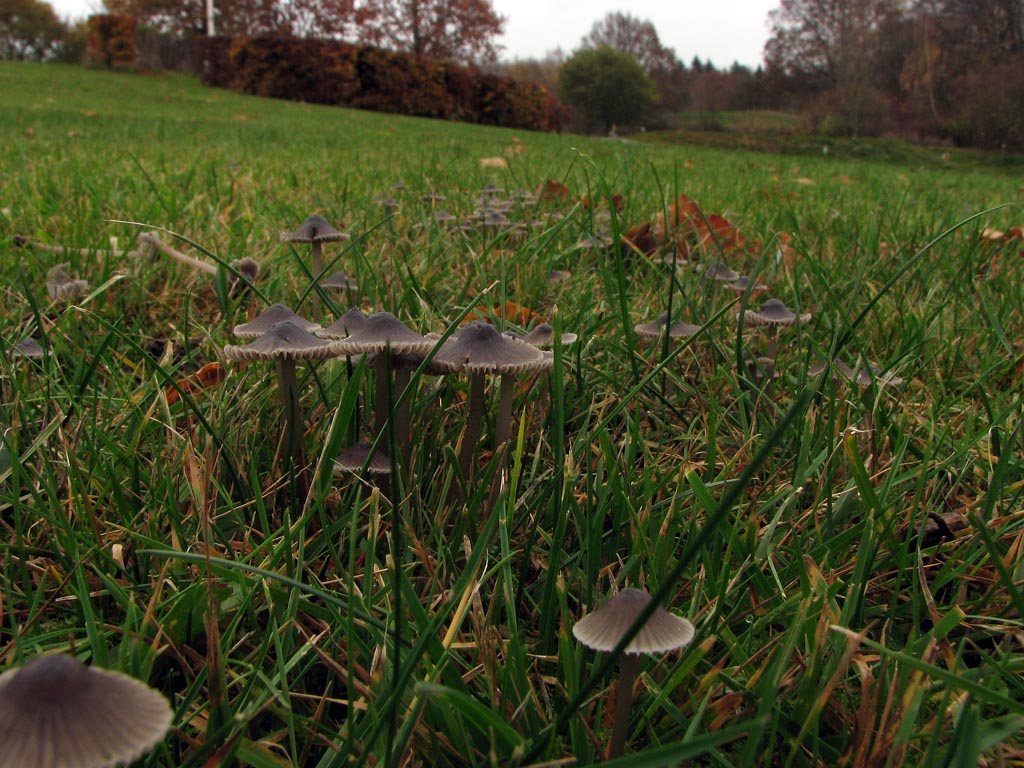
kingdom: Fungi
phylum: Basidiomycota
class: Agaricomycetes
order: Agaricales
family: Mycenaceae
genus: Mycena
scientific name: Mycena aetites
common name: plæne-huesvamp
